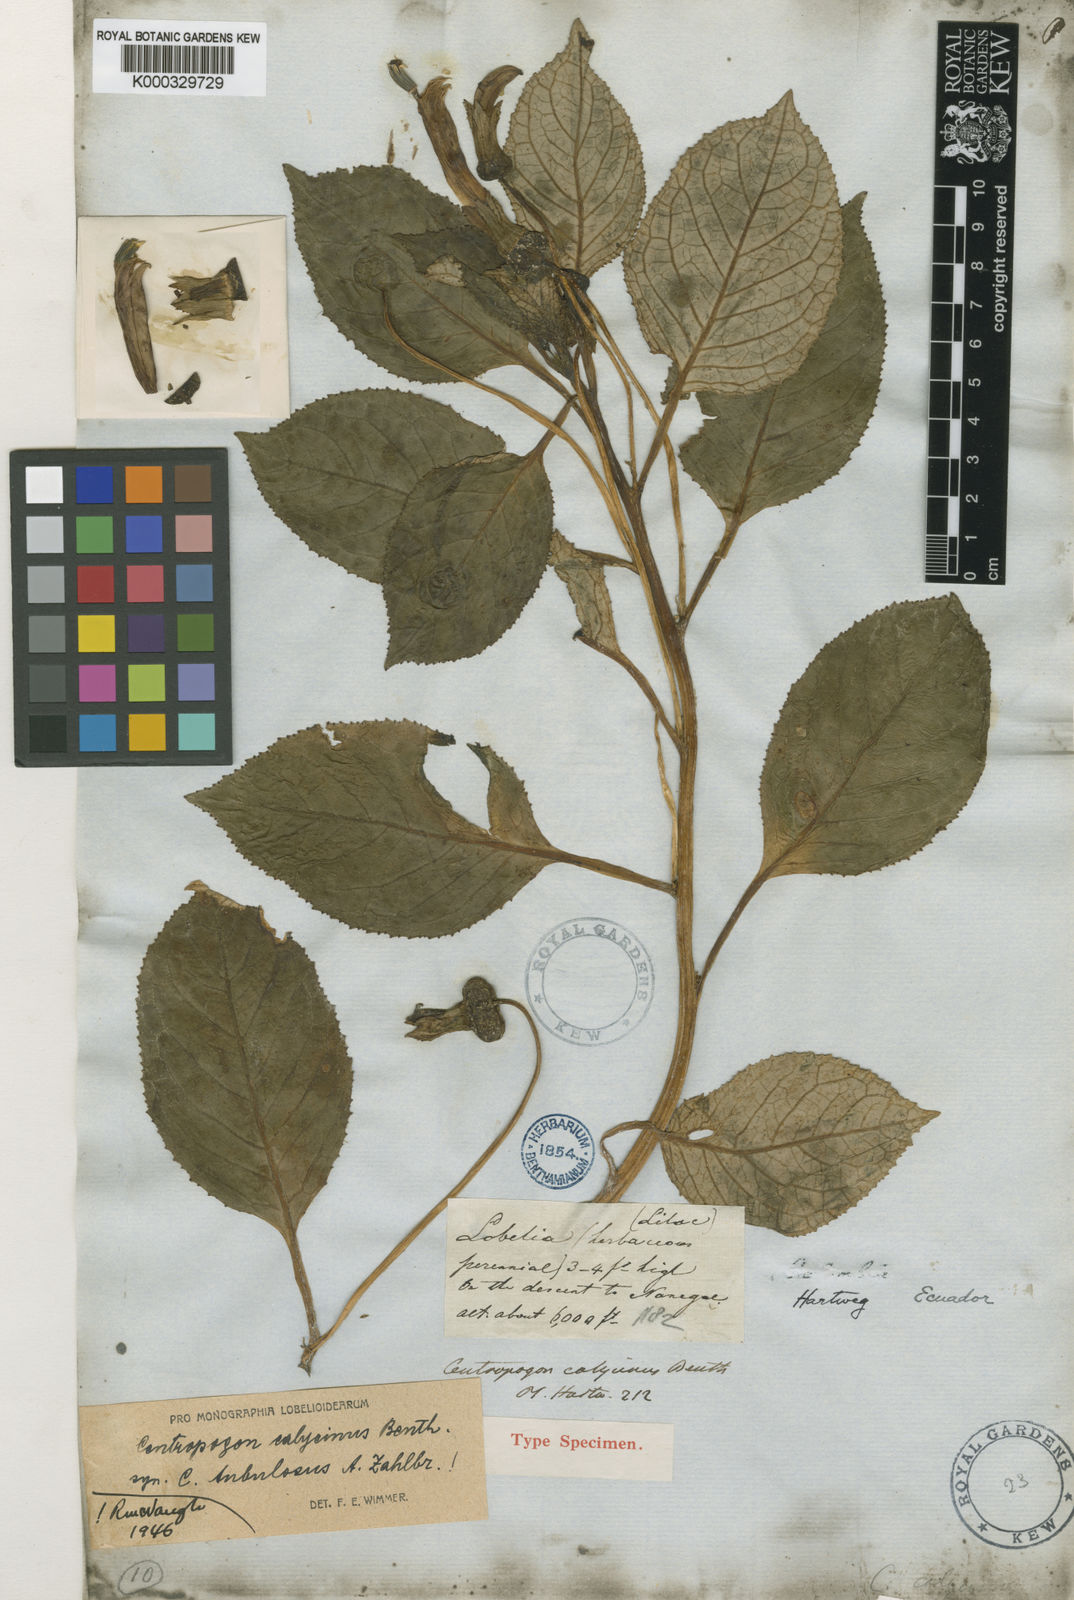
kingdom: Plantae
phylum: Tracheophyta
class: Magnoliopsida
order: Asterales
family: Campanulaceae
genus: Centropogon
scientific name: Centropogon calycinus
